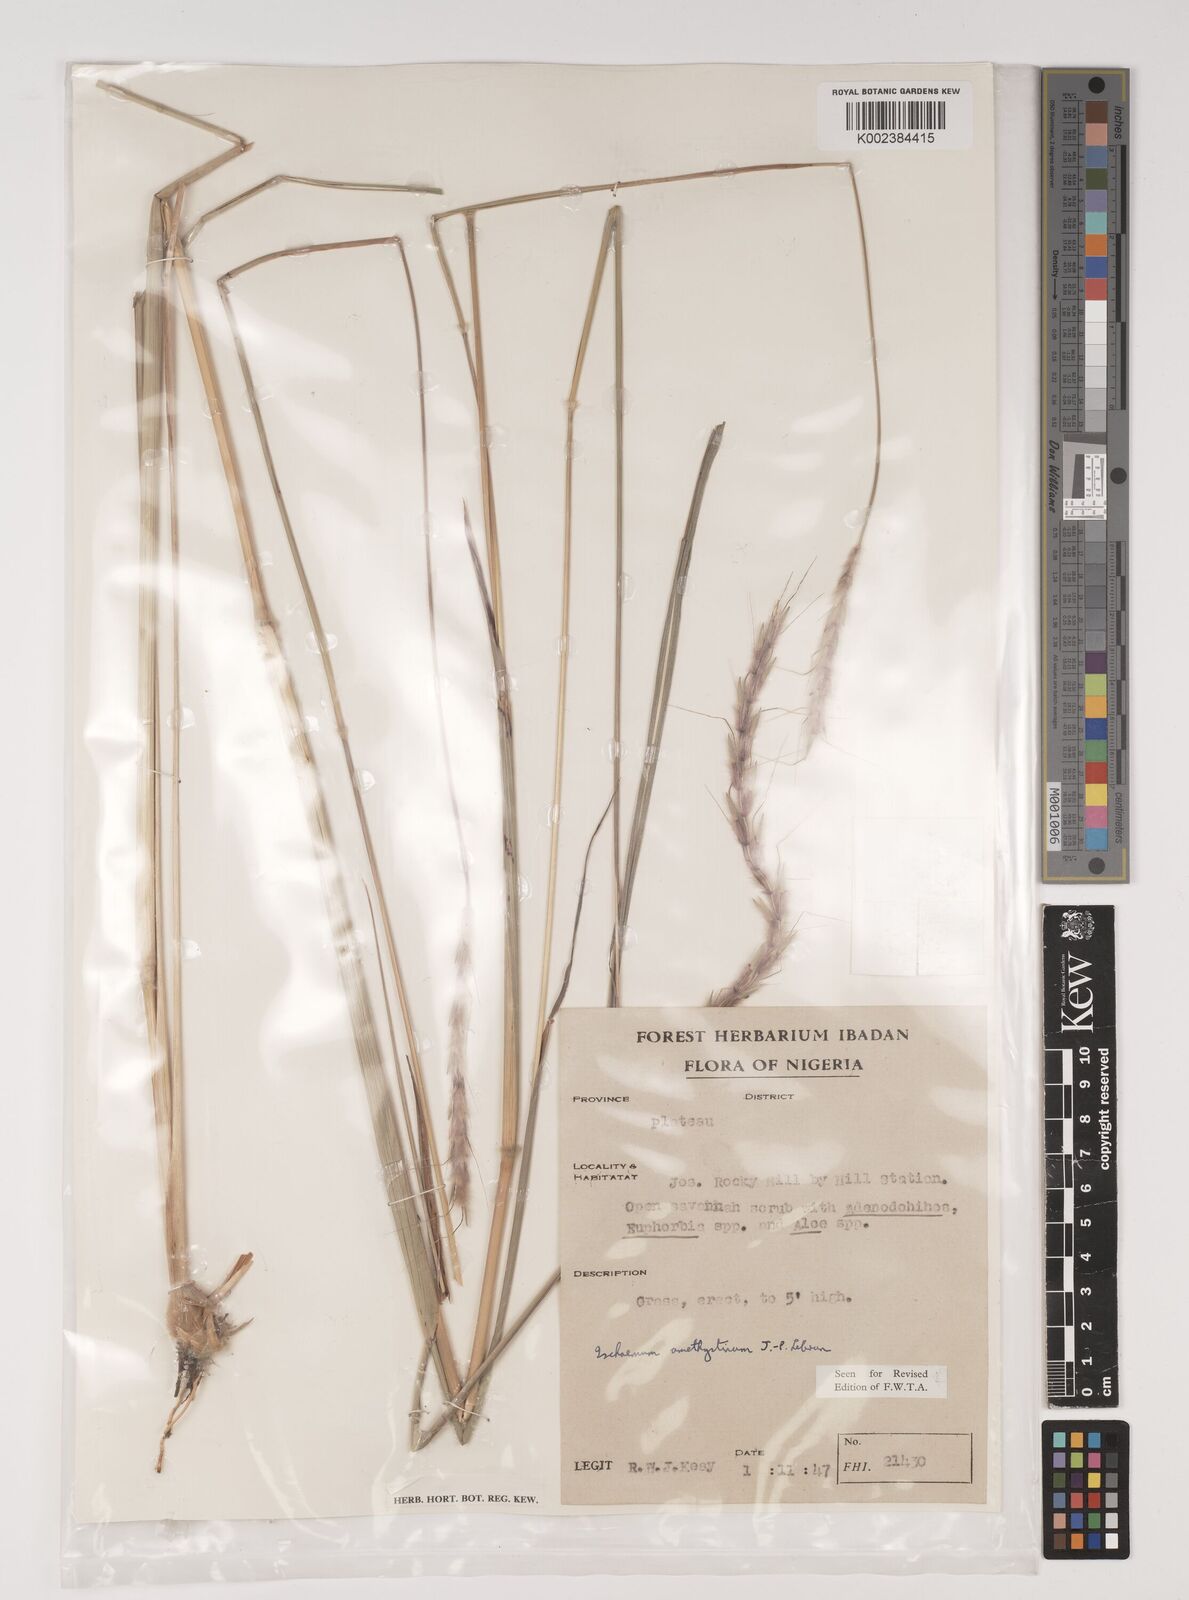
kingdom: Plantae
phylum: Tracheophyta
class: Liliopsida
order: Poales
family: Poaceae
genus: Ischaemum
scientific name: Ischaemum amethystinum
